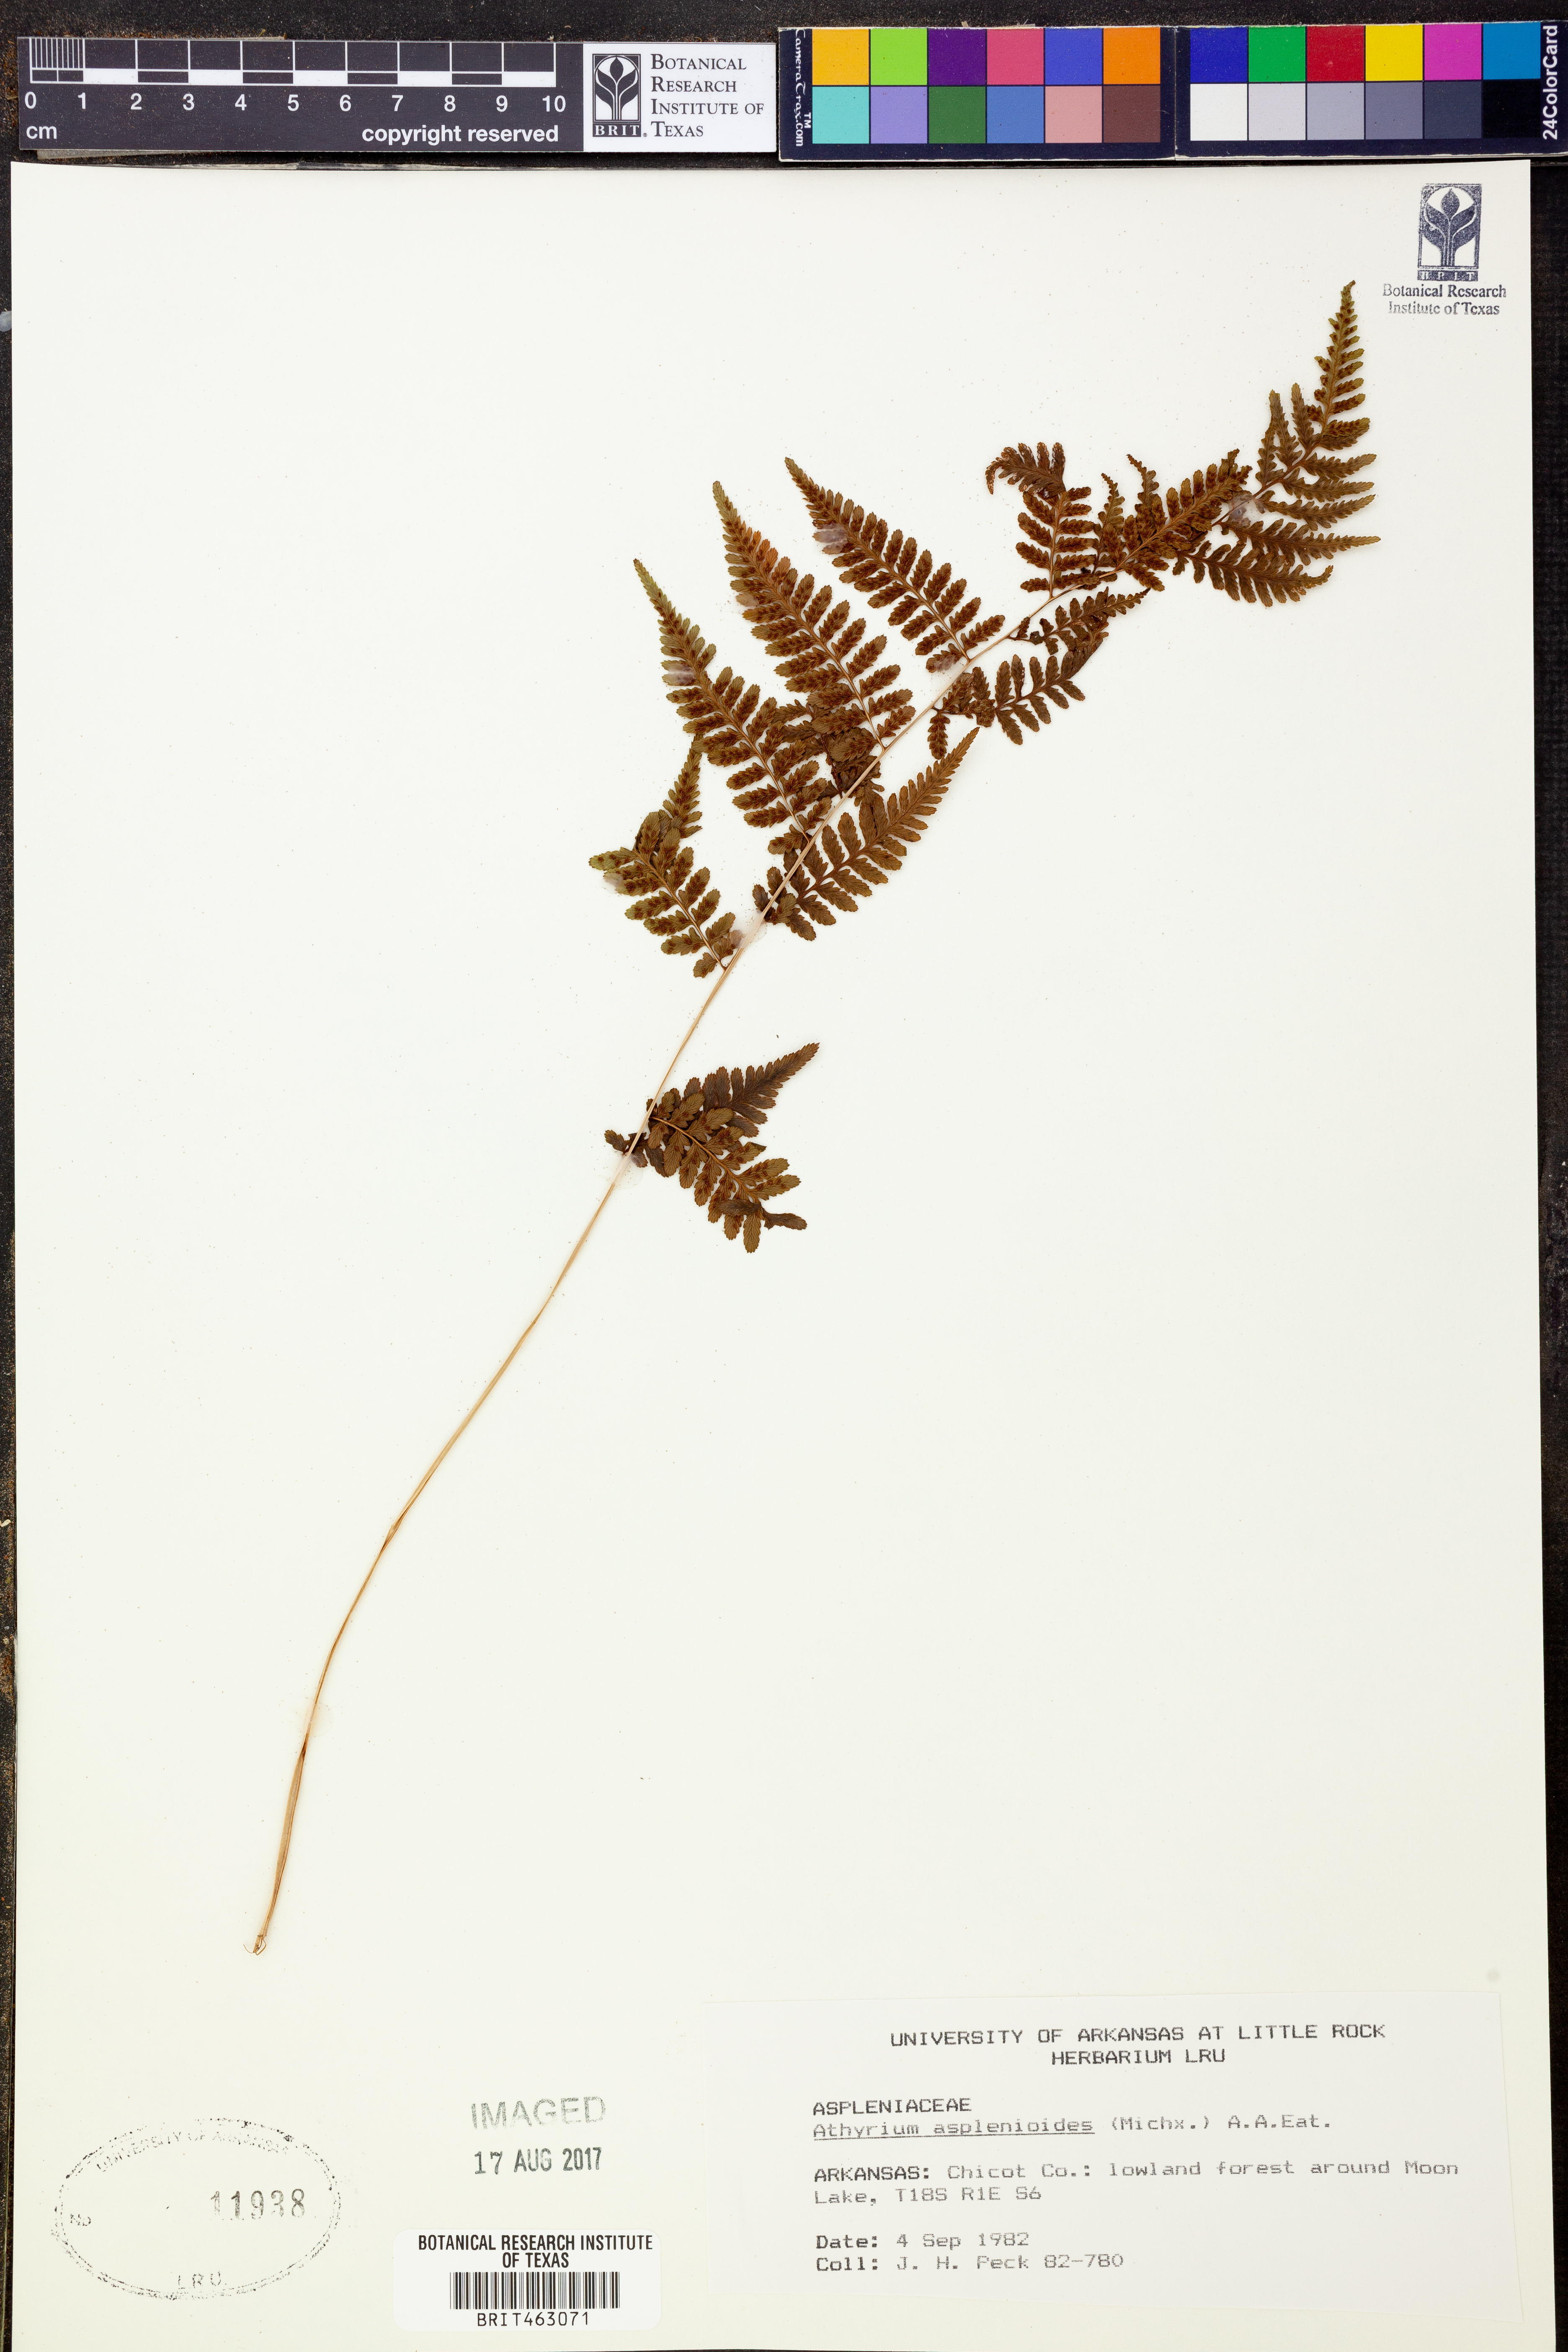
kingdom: Plantae
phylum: Tracheophyta
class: Polypodiopsida
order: Polypodiales
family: Athyriaceae
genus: Athyrium
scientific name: Athyrium asplenioides
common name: Southern lady fern
